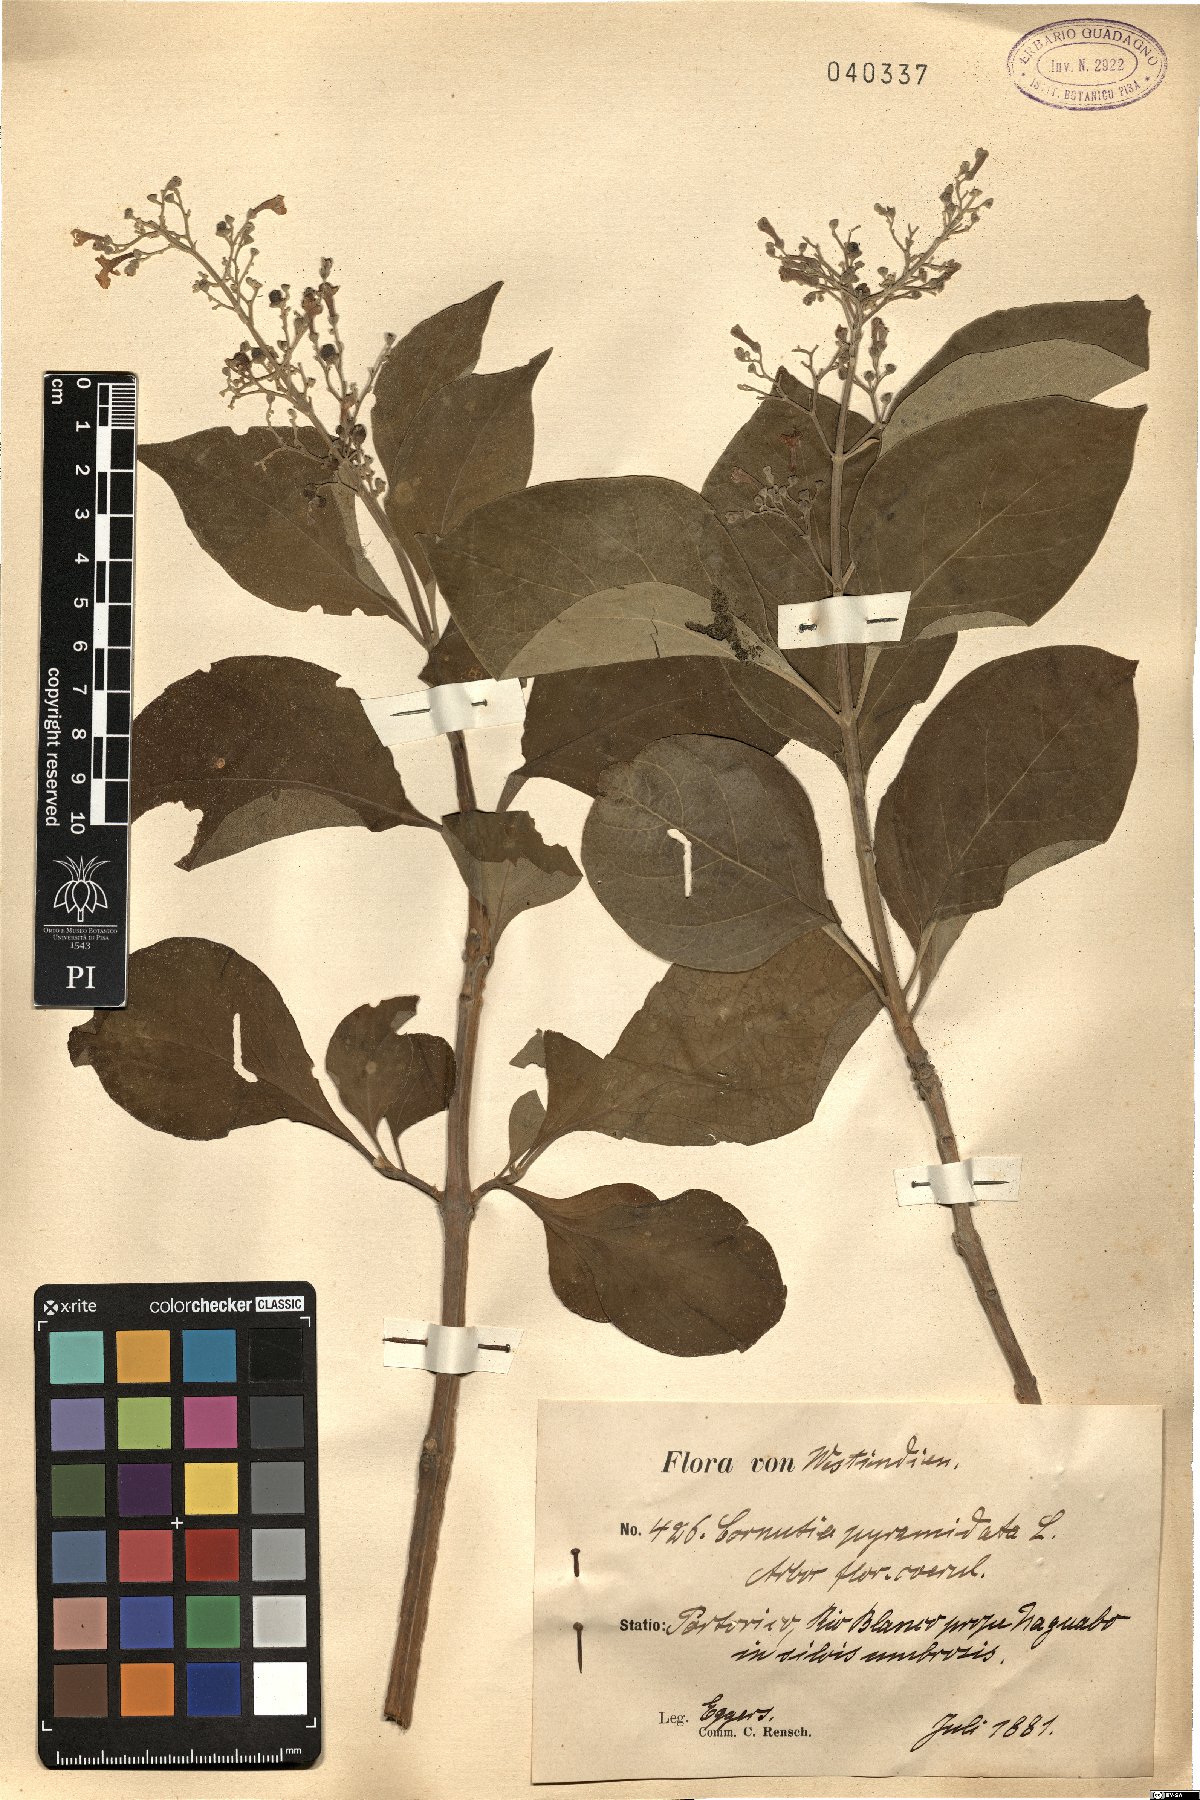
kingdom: Plantae
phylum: Tracheophyta
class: Magnoliopsida
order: Lamiales
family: Lamiaceae
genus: Cornutia
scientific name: Cornutia pyramidata
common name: Azulejo
